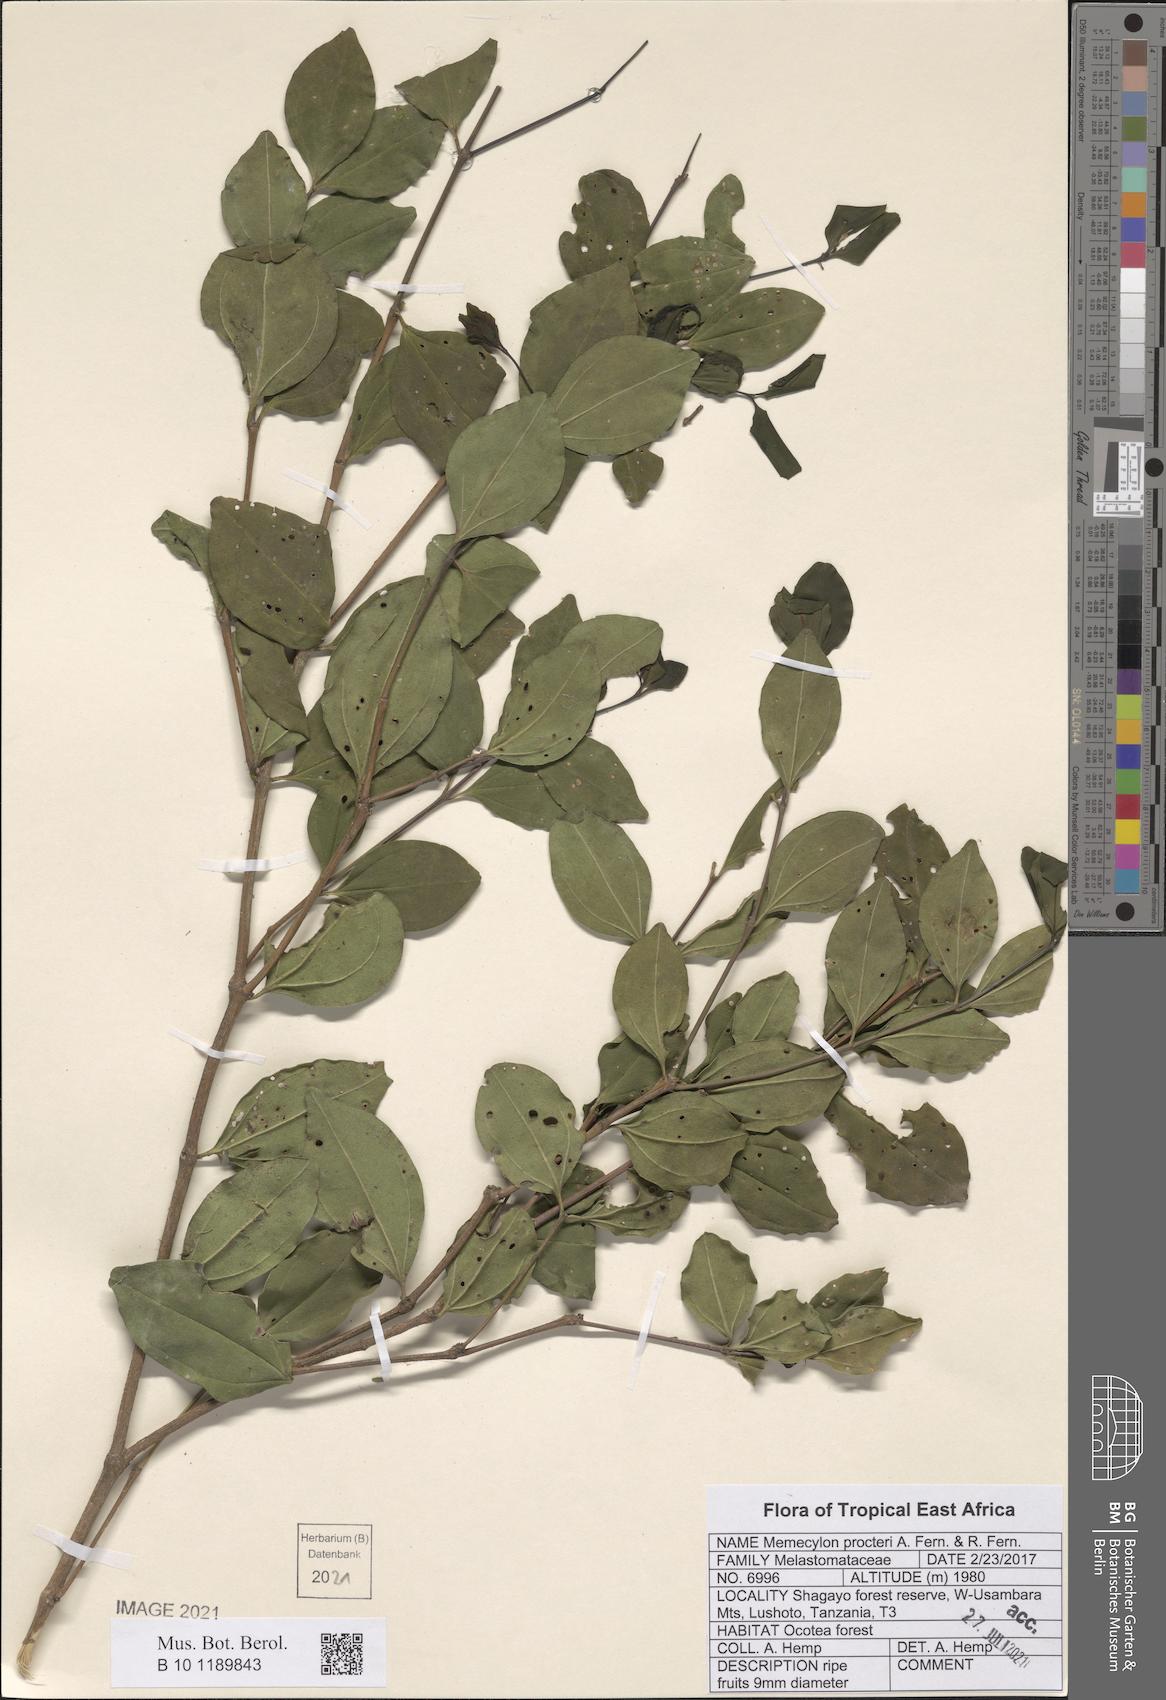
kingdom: Plantae
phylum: Tracheophyta
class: Magnoliopsida
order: Myrtales
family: Melastomataceae
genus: Lijndenia
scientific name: Lijndenia procteri
